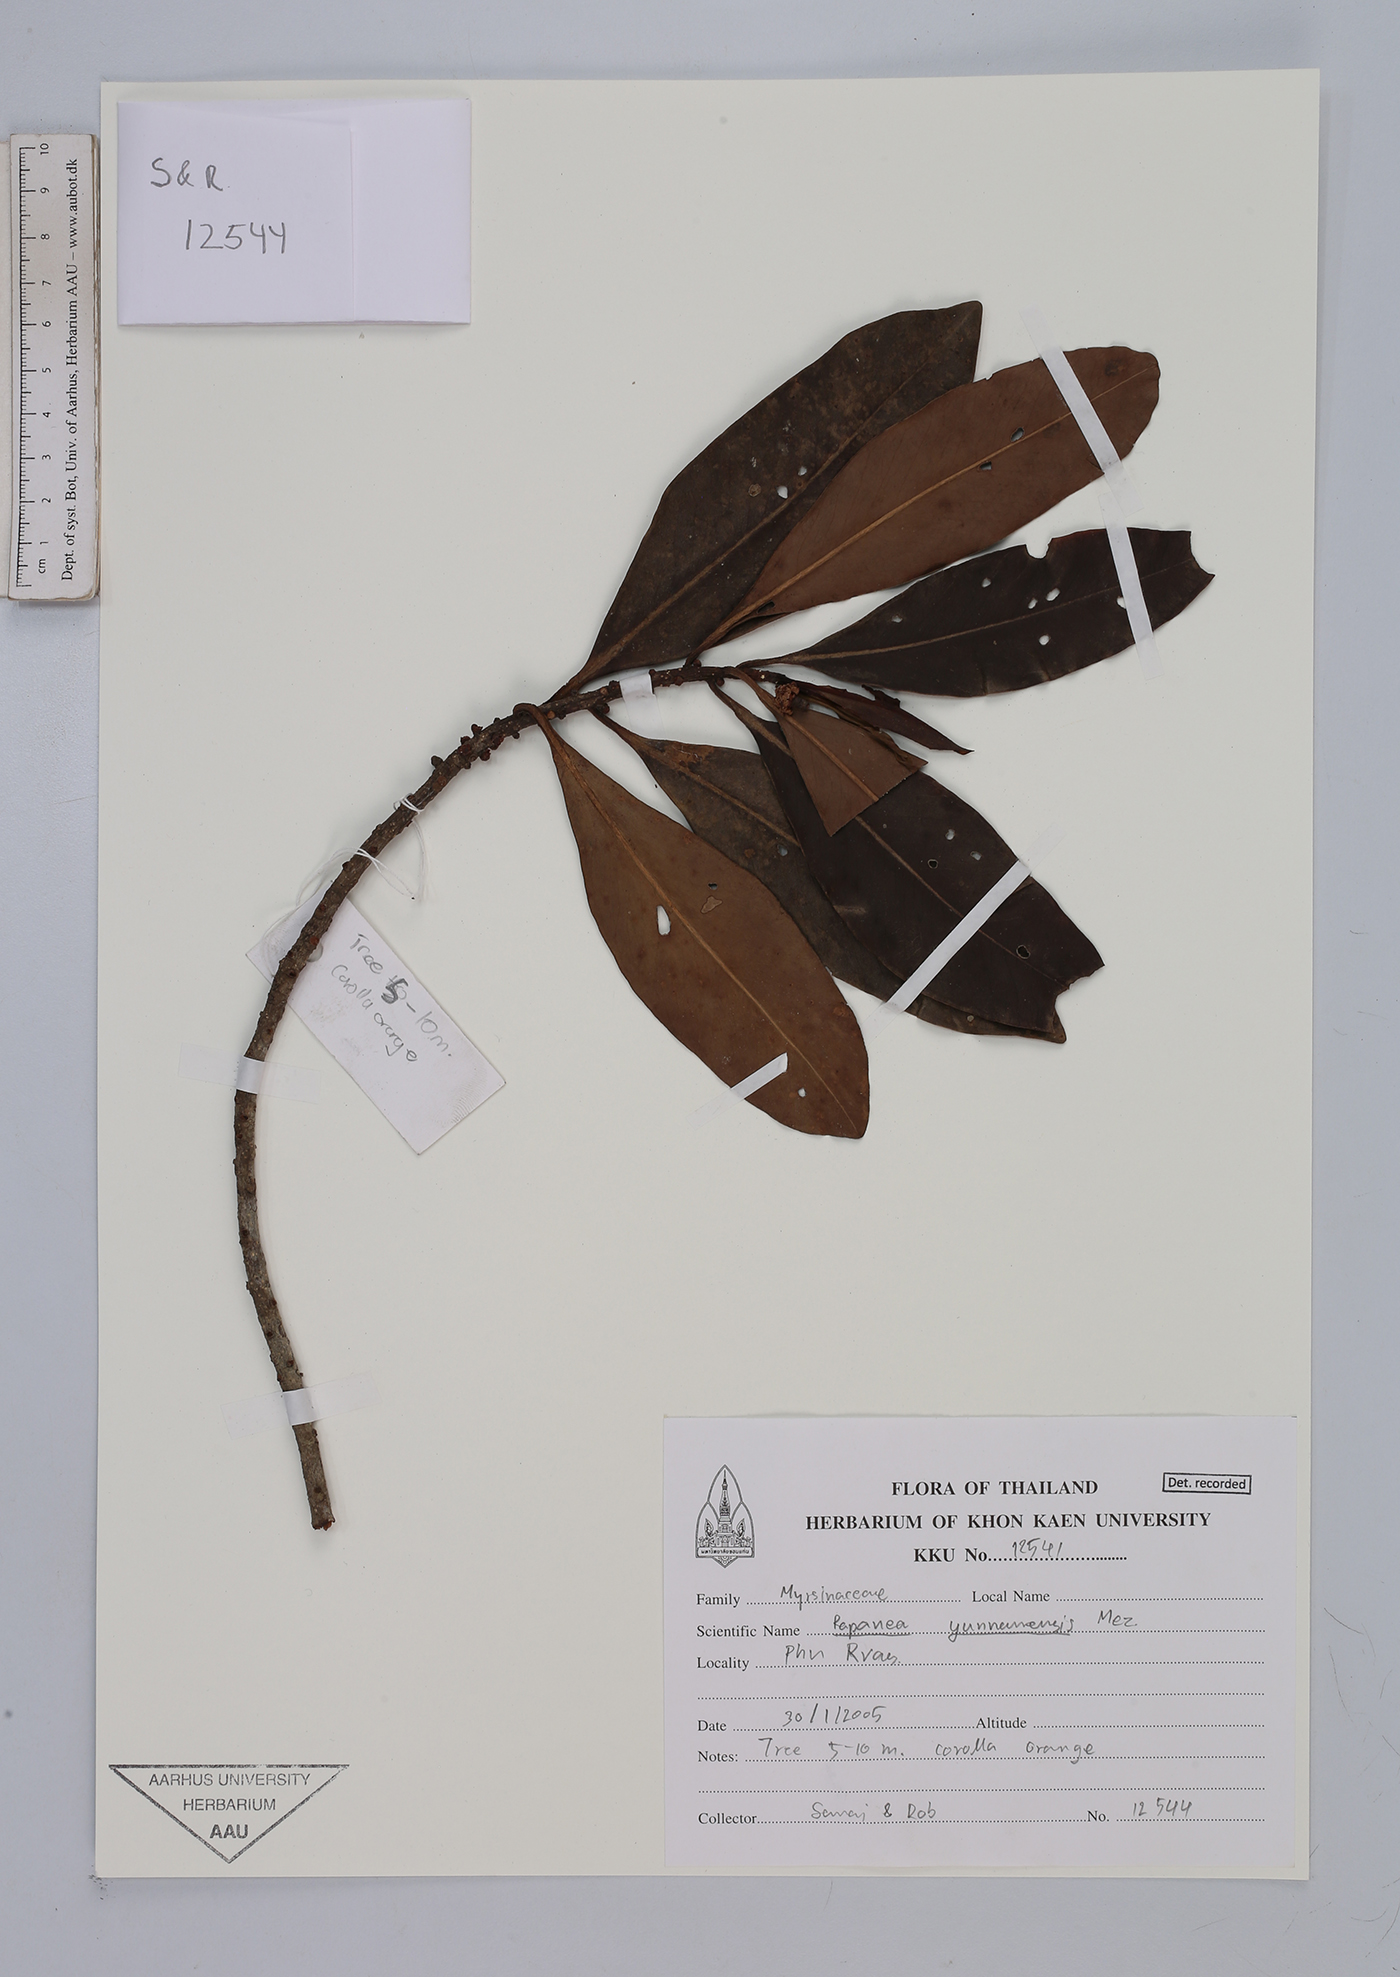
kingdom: Plantae
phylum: Tracheophyta
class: Magnoliopsida
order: Ericales
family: Primulaceae
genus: Myrsine
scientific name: Myrsine seguinii
